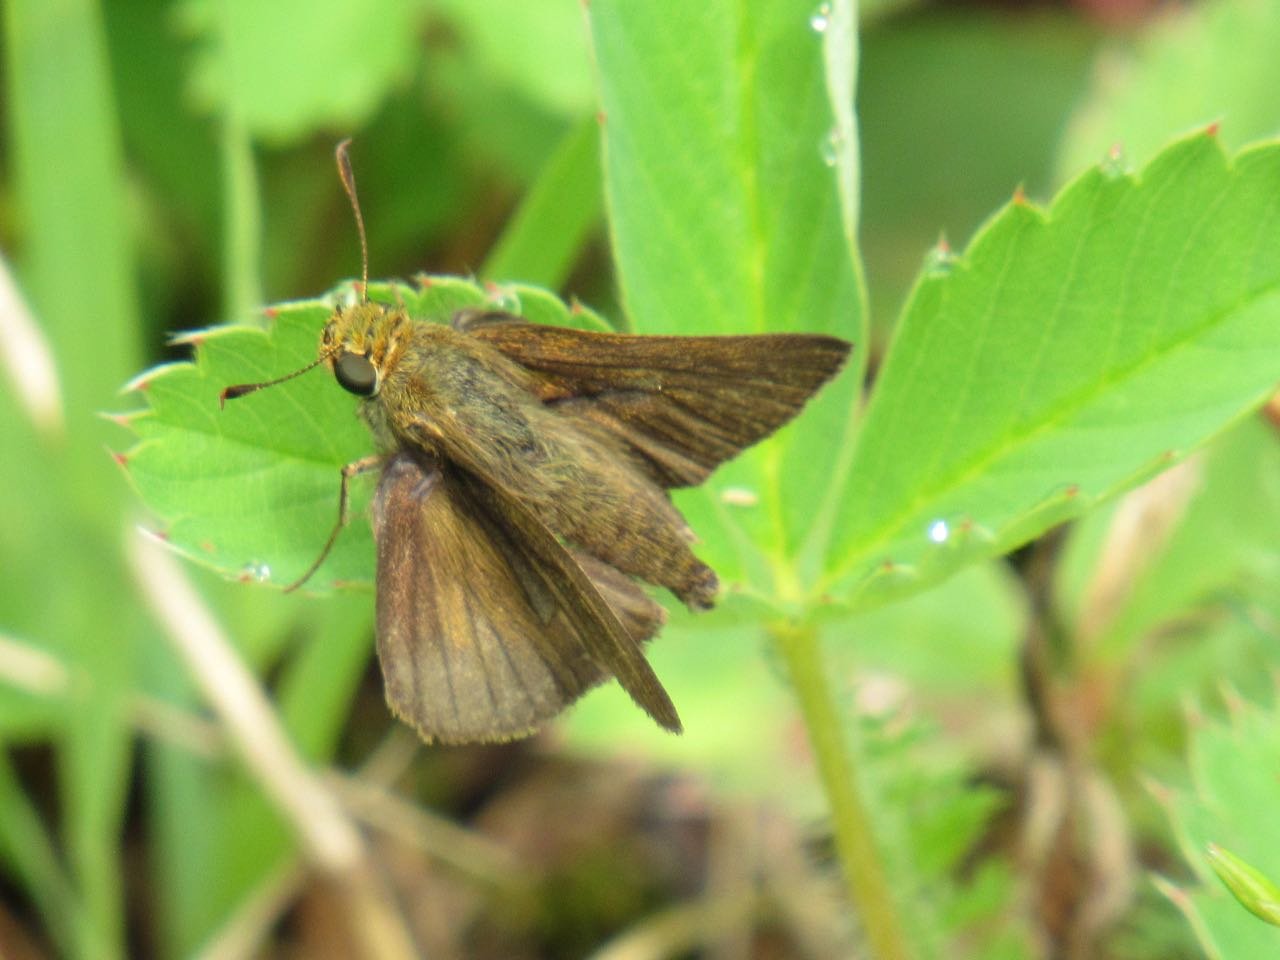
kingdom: Animalia
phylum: Arthropoda
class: Insecta
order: Lepidoptera
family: Hesperiidae
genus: Euphyes
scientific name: Euphyes vestris
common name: Dun Skipper
